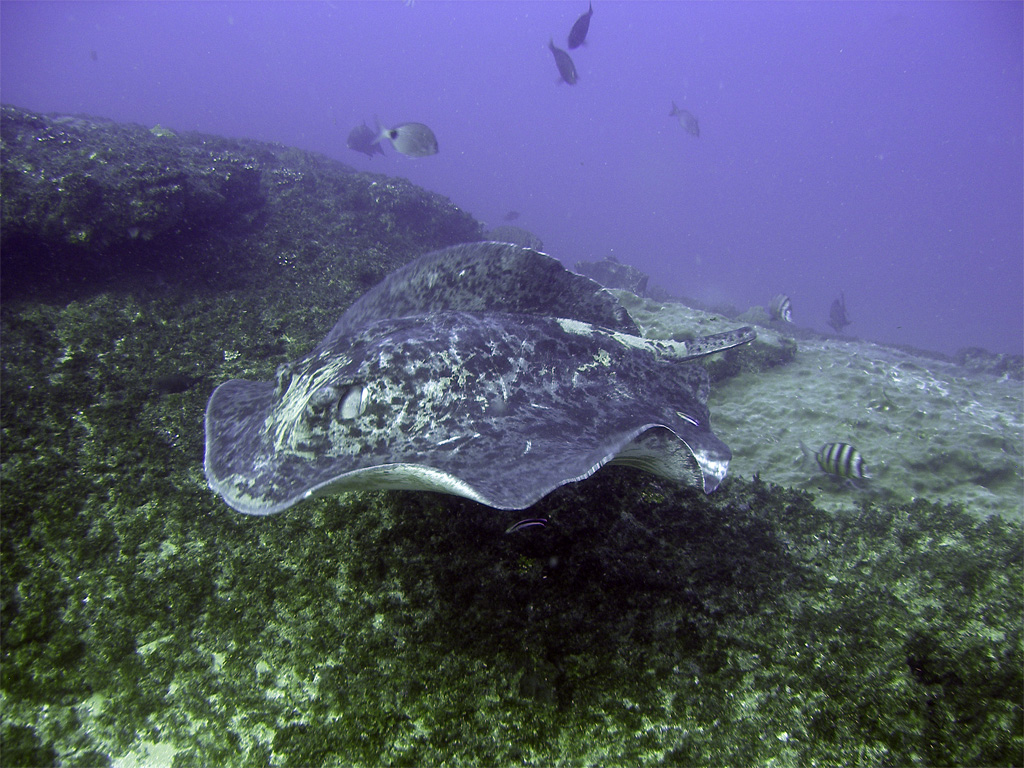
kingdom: Animalia
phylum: Chordata
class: Elasmobranchii
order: Myliobatiformes
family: Dasyatidae
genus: Taeniurops
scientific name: Taeniurops meyeni
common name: Black-blotched stingray
